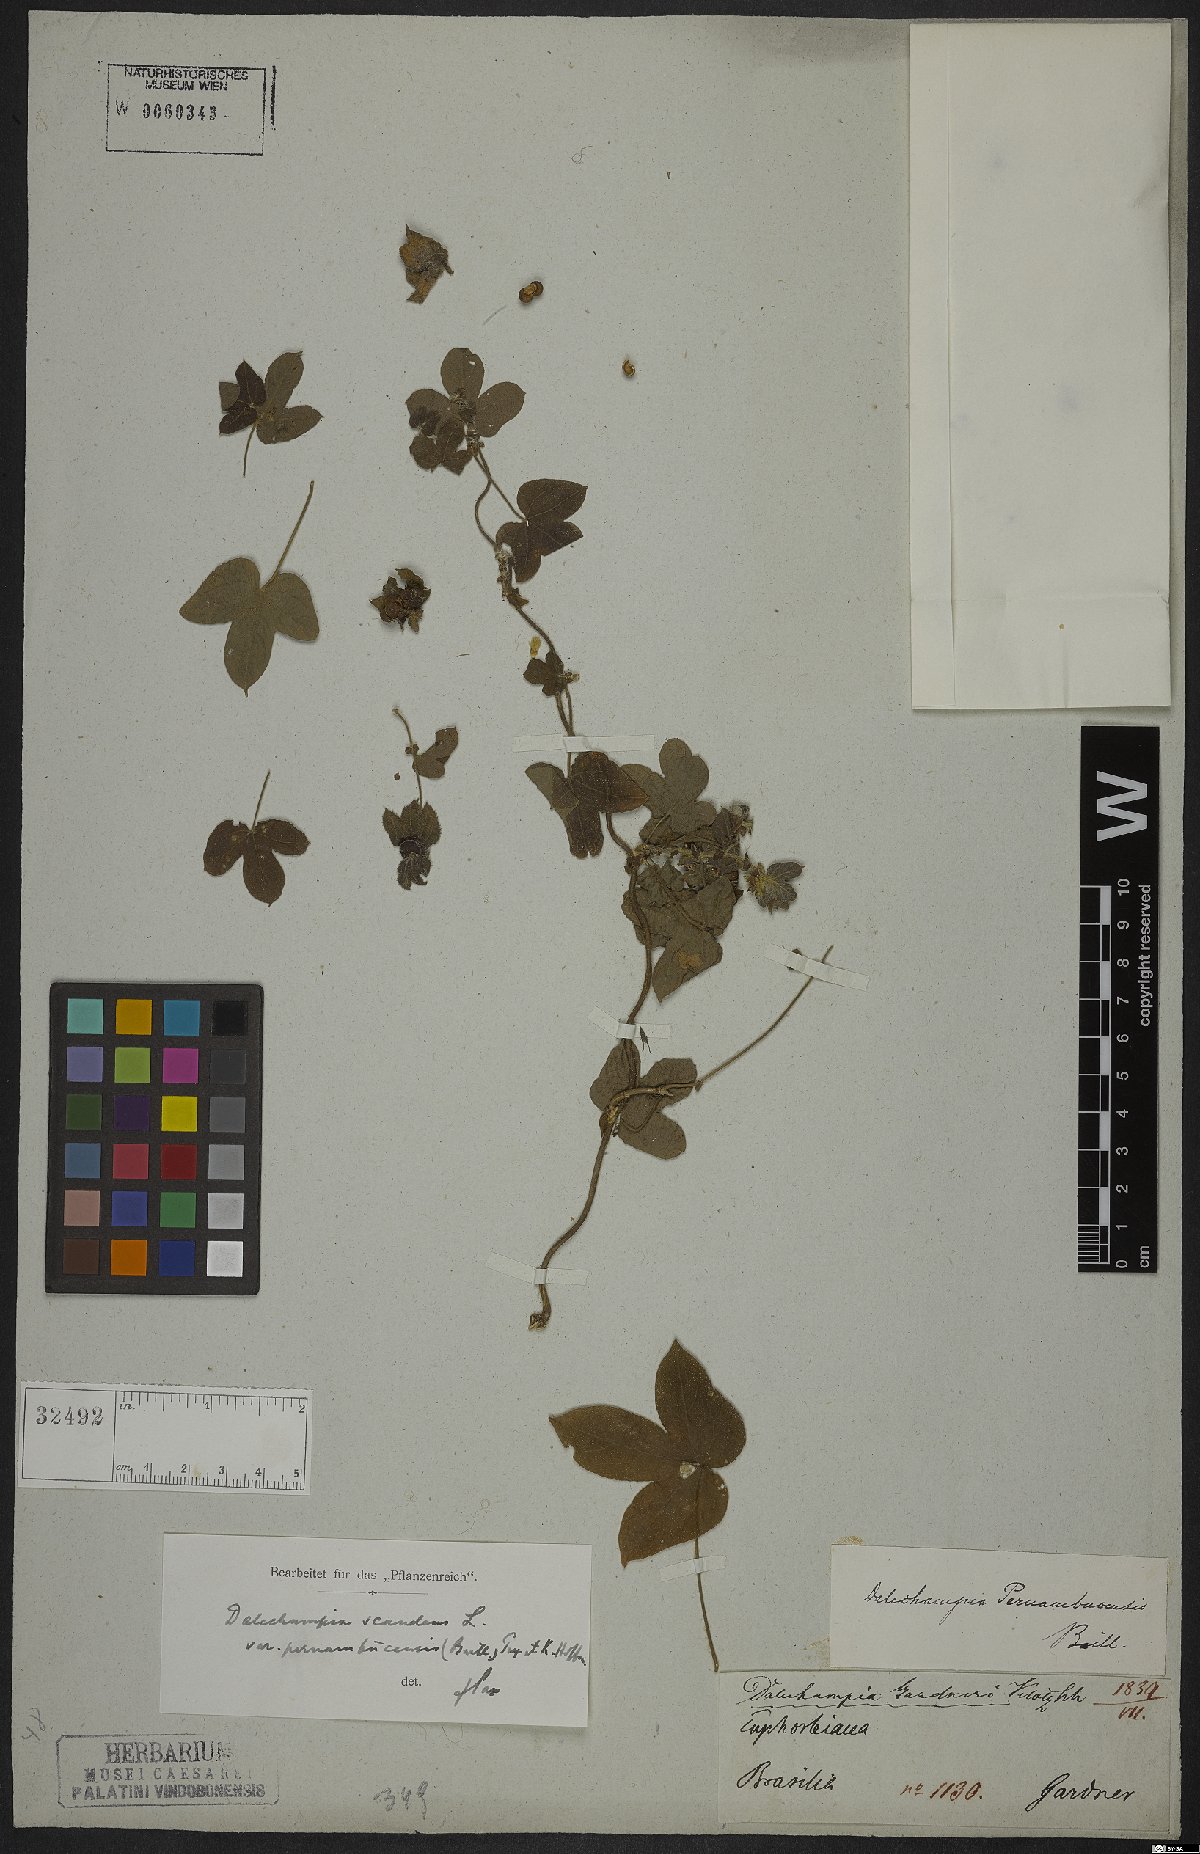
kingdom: Plantae
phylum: Tracheophyta
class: Magnoliopsida
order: Malpighiales
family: Euphorbiaceae
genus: Dalechampia
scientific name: Dalechampia pernambucensis
